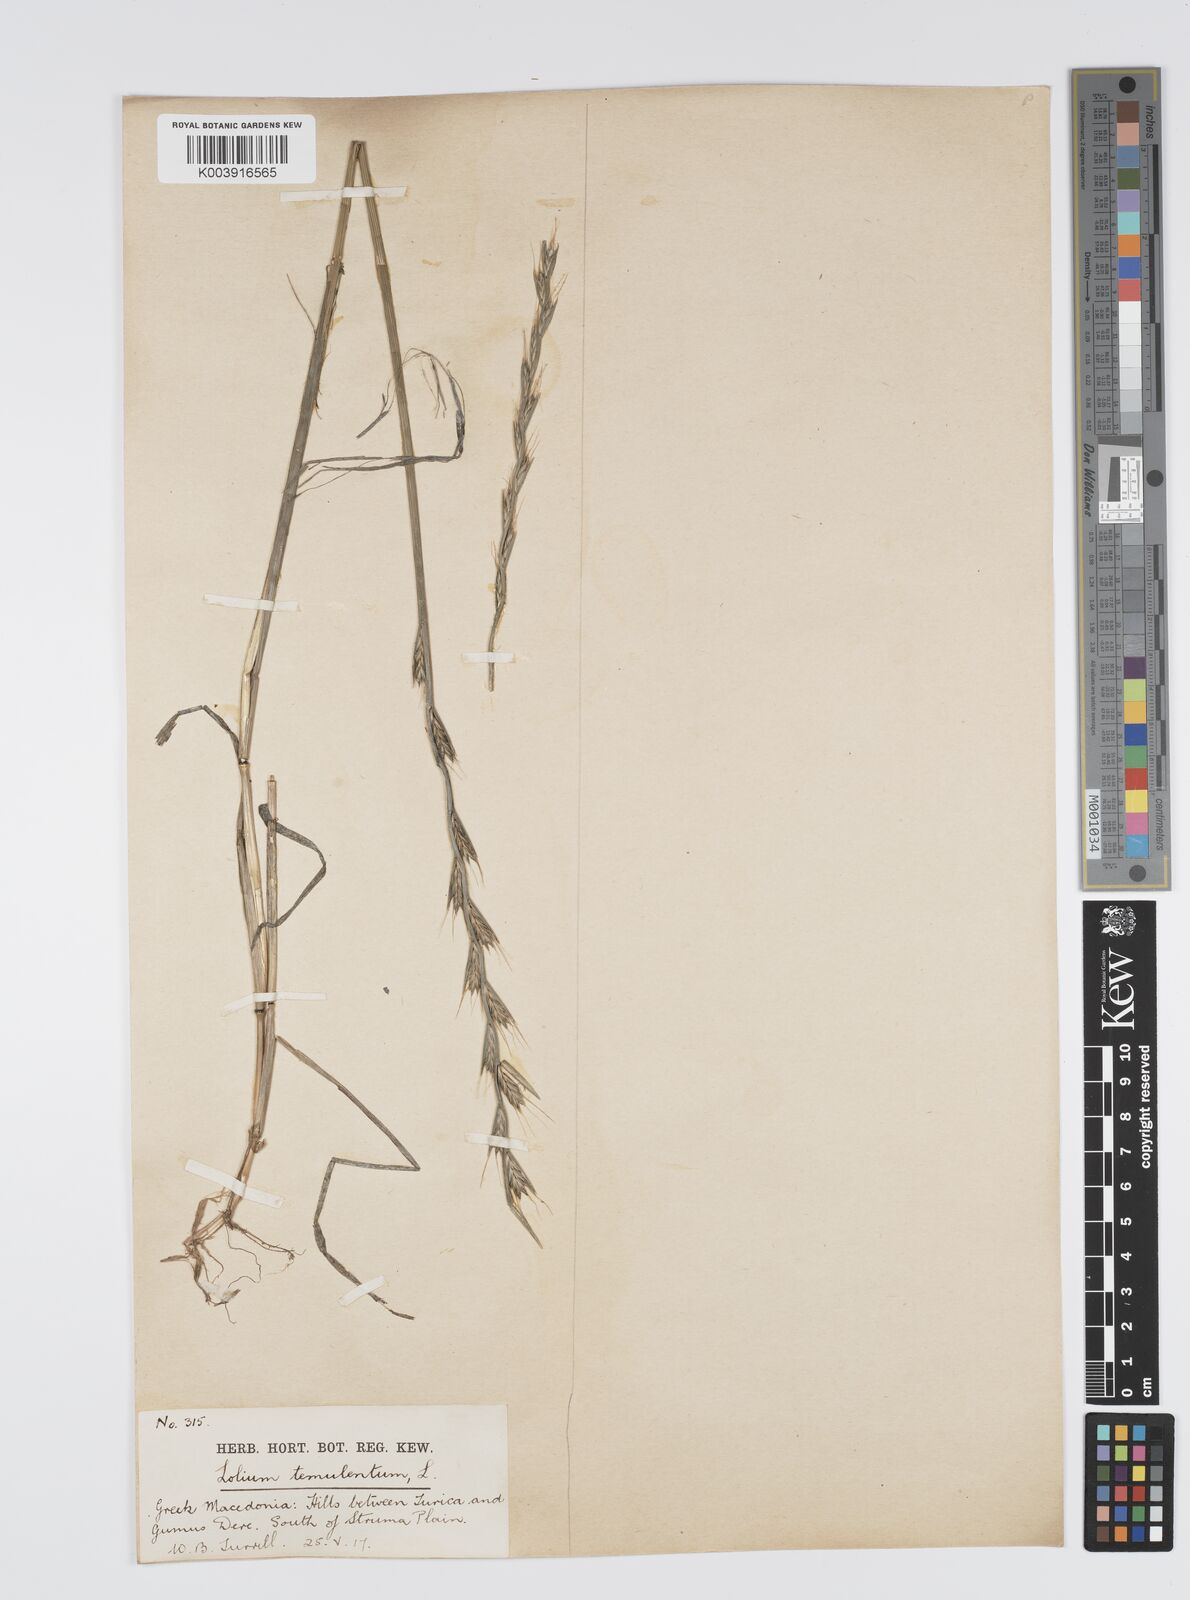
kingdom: Plantae
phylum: Tracheophyta
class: Liliopsida
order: Poales
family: Poaceae
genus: Lolium
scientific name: Lolium temulentum
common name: Darnel
